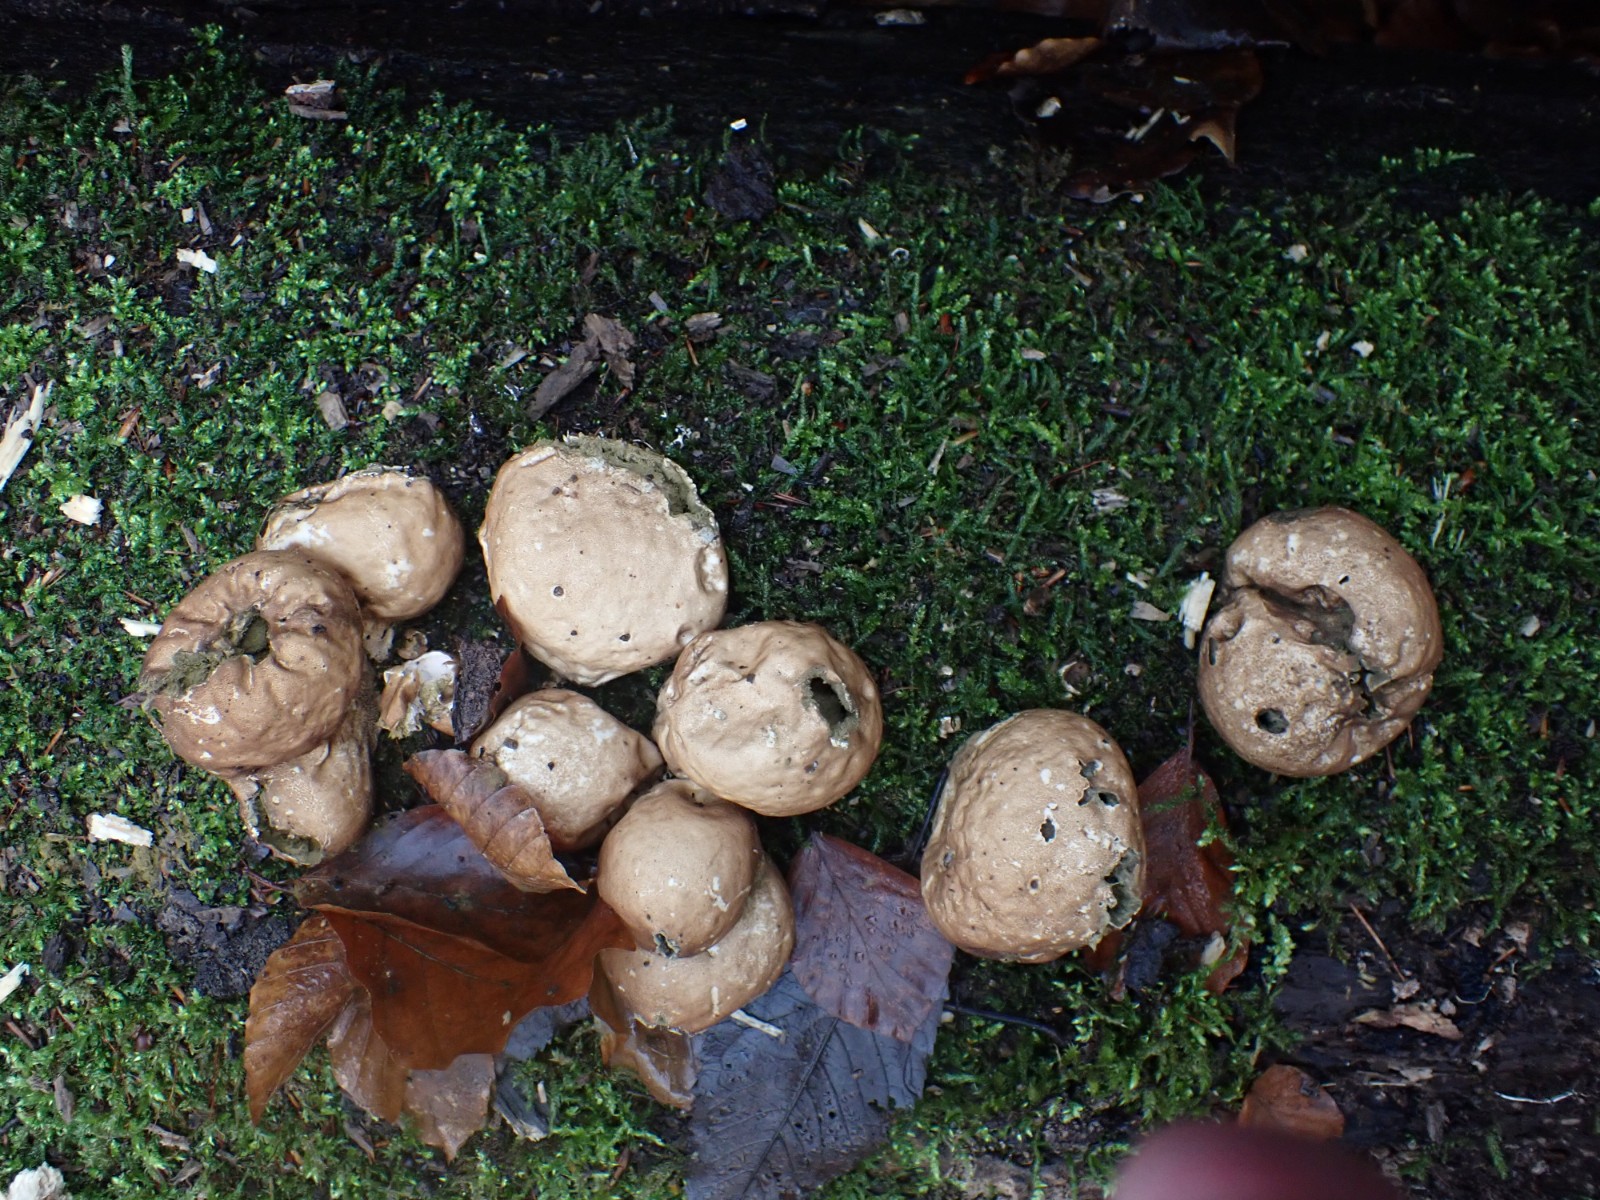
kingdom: Fungi
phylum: Basidiomycota
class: Agaricomycetes
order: Agaricales
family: Lycoperdaceae
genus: Apioperdon
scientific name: Apioperdon pyriforme
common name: pære-støvbold
